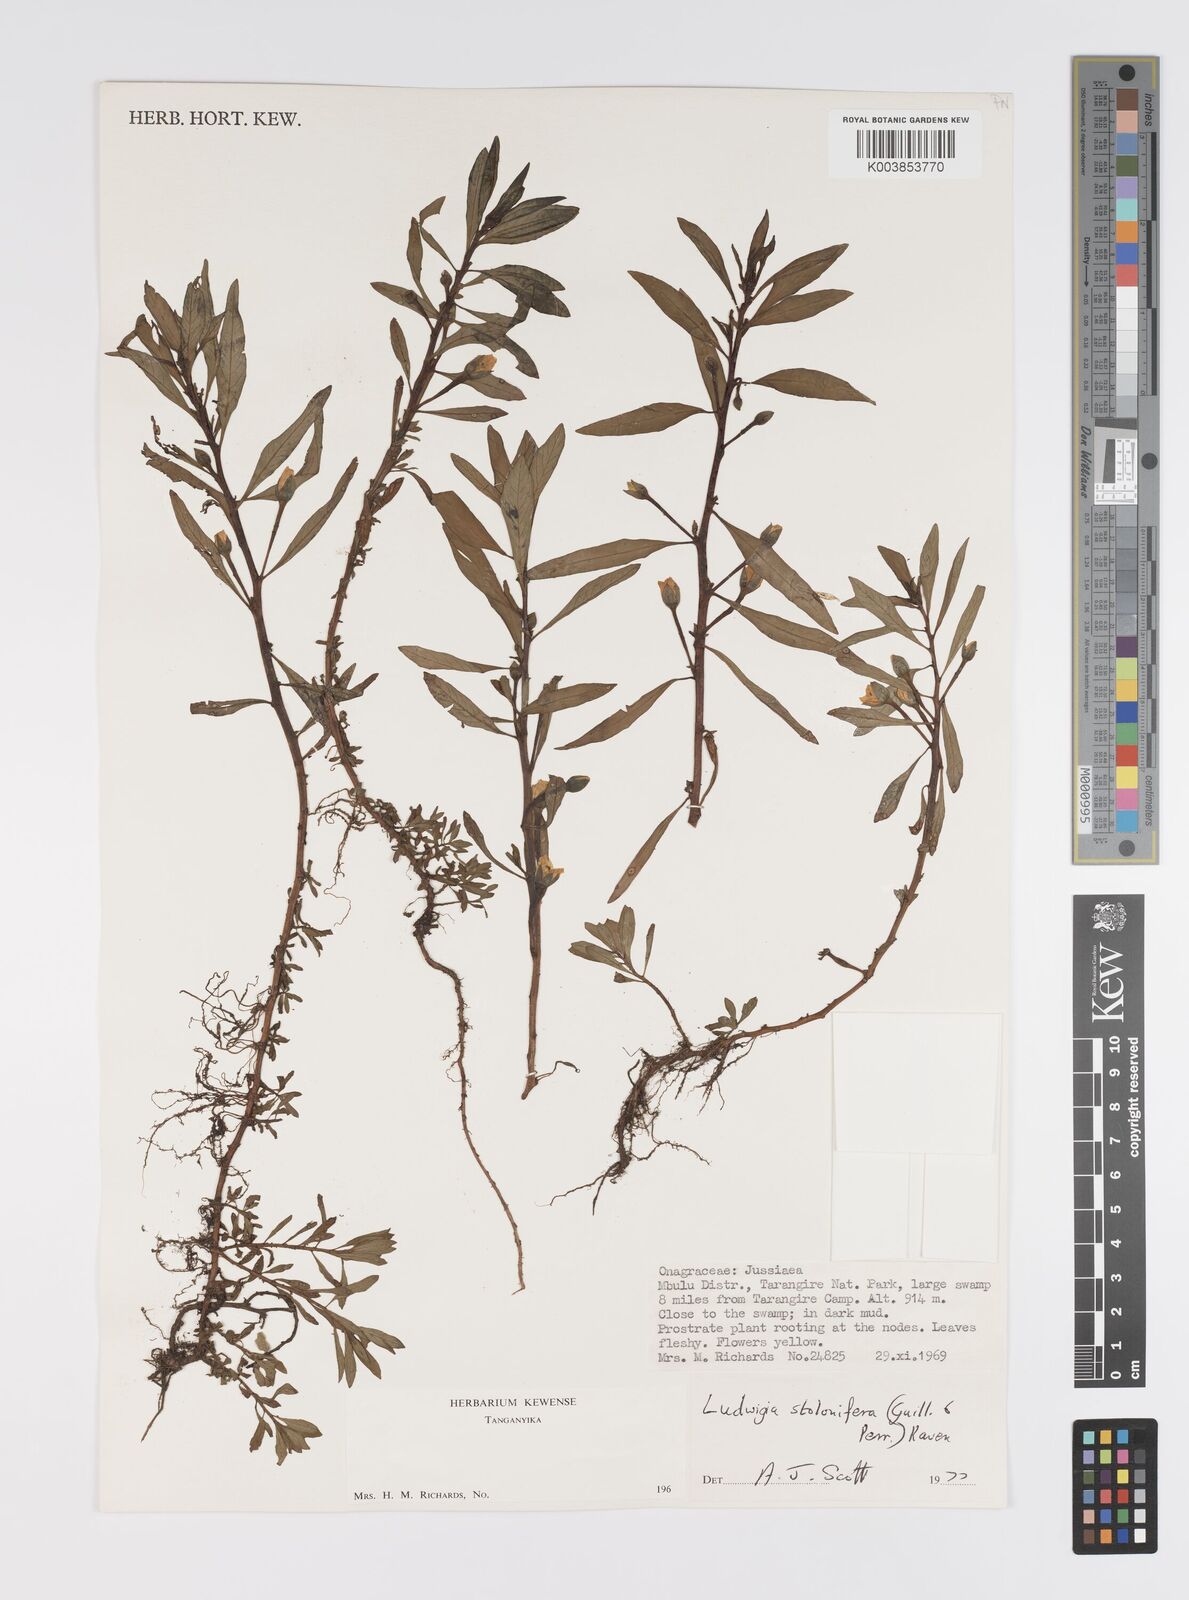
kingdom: Plantae
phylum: Tracheophyta
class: Magnoliopsida
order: Myrtales
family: Onagraceae
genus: Ludwigia
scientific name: Ludwigia repens
